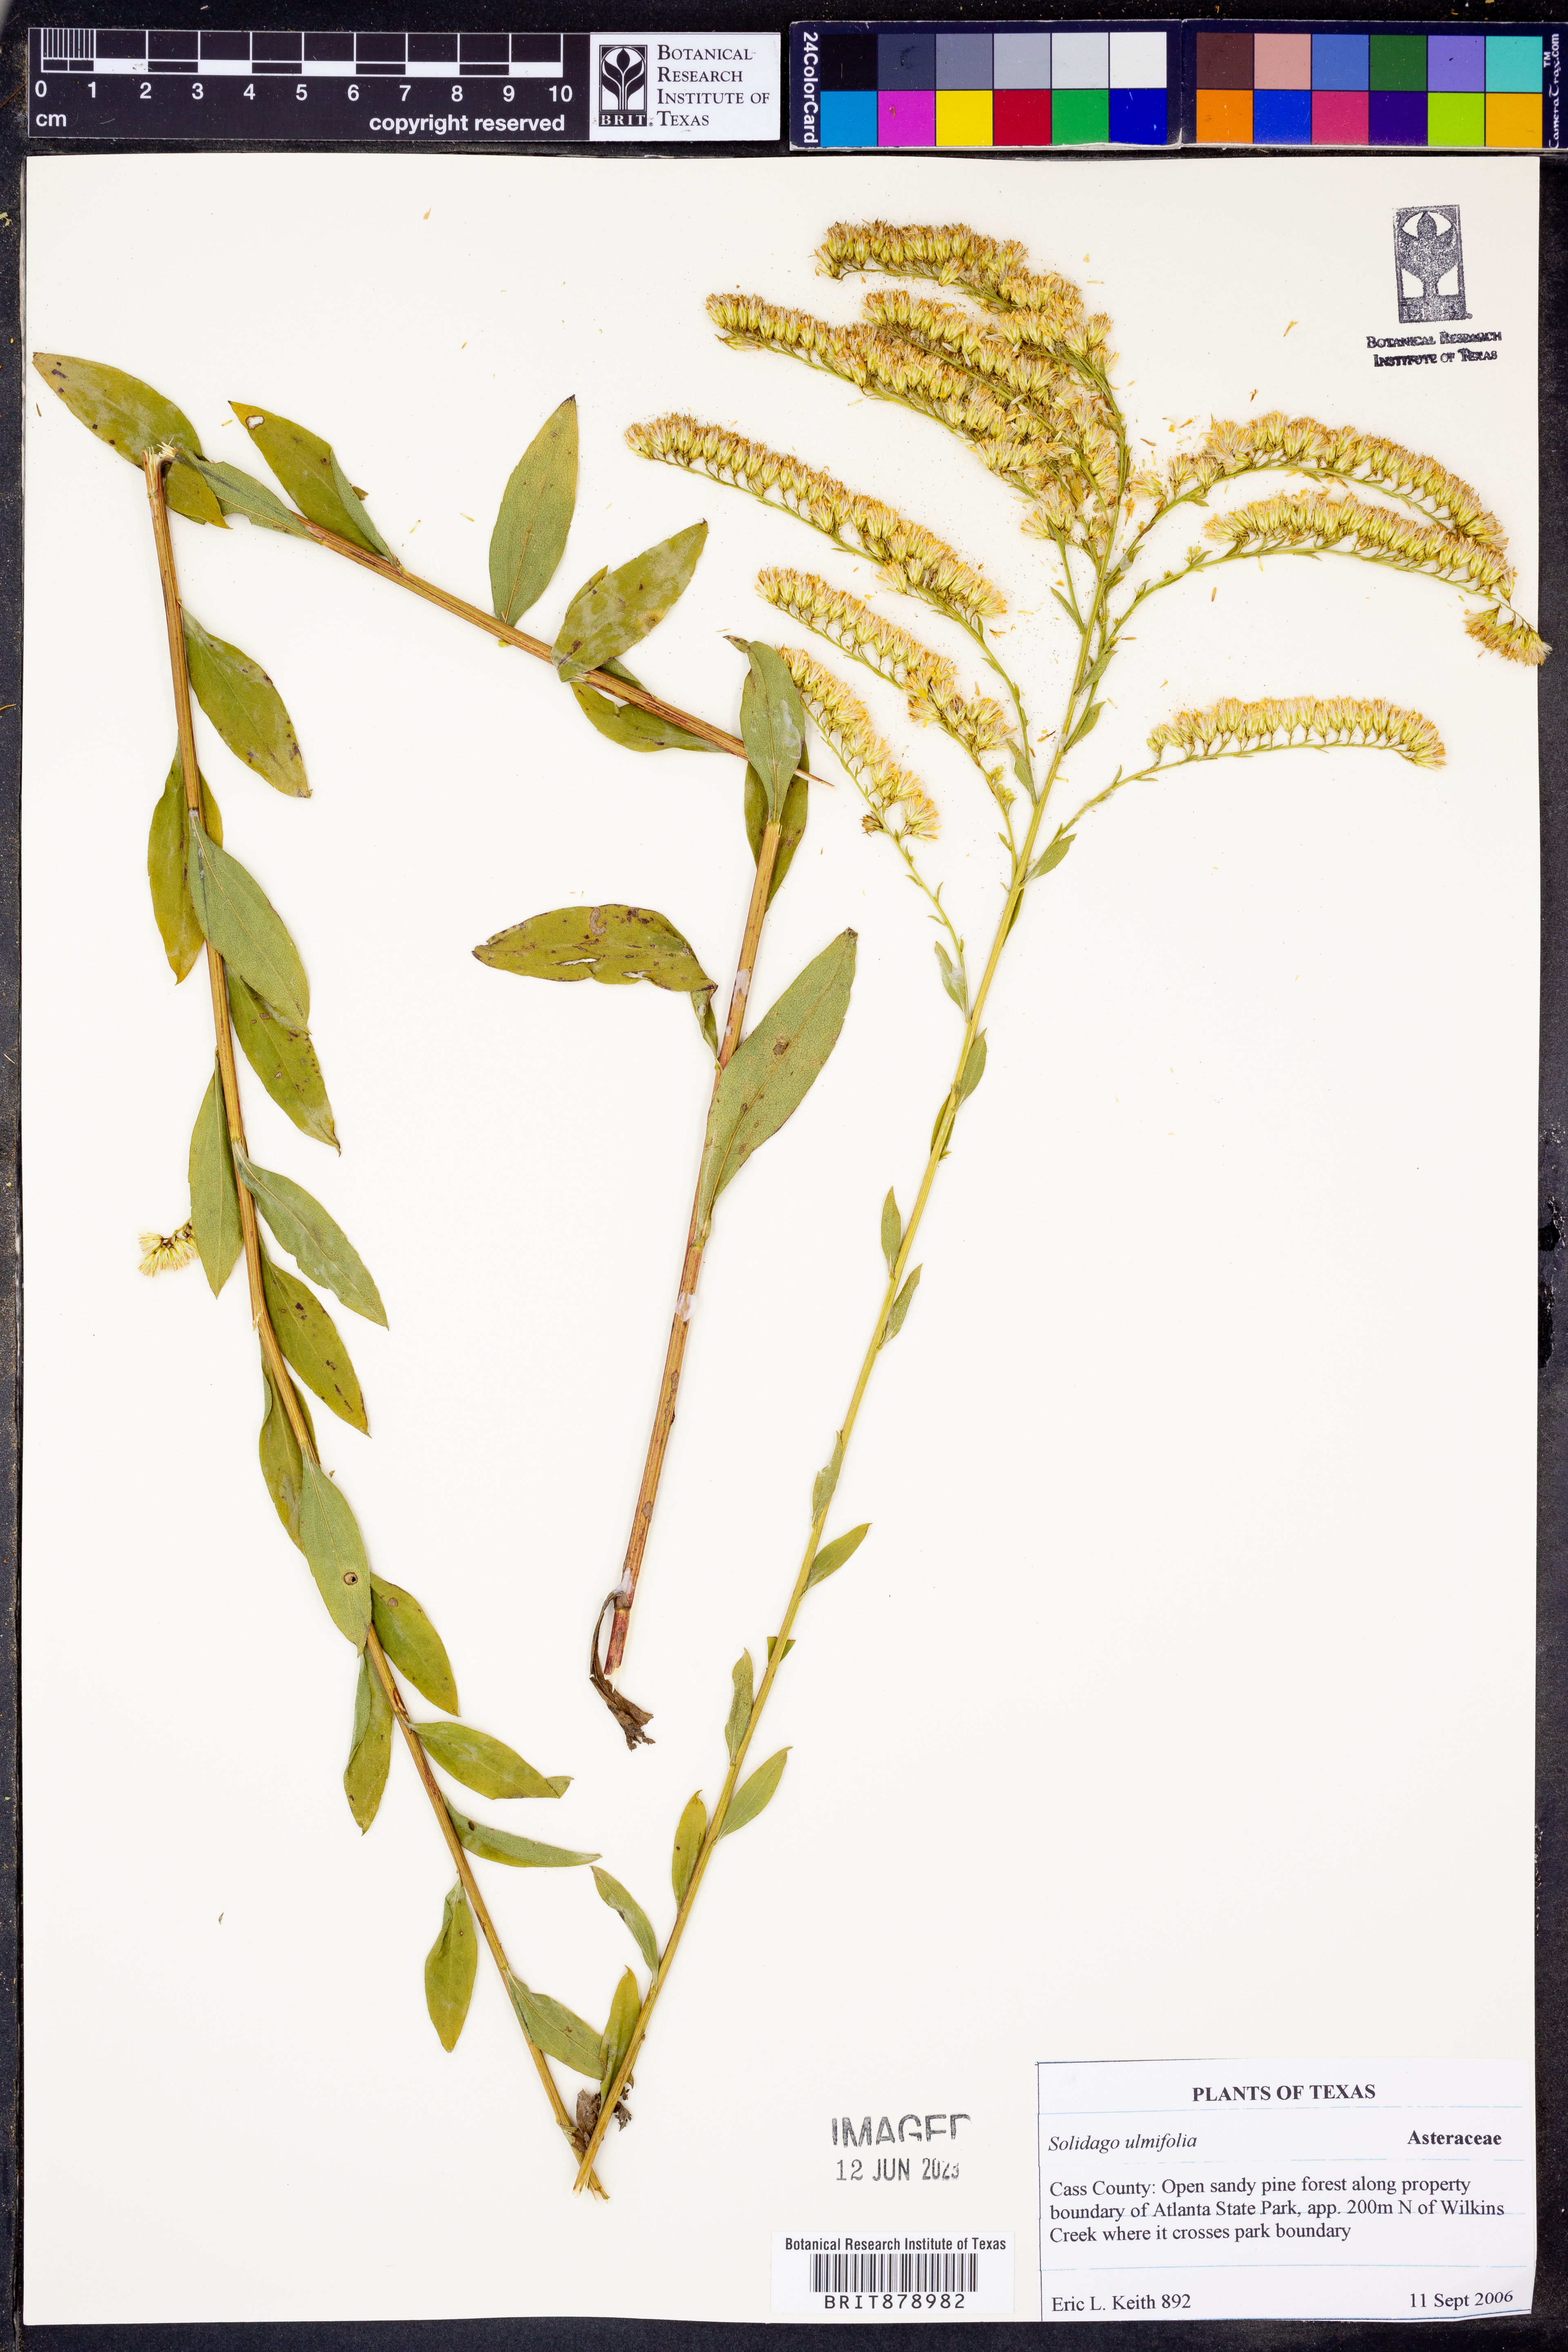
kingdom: Plantae
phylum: Tracheophyta
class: Magnoliopsida
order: Asterales
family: Asteraceae
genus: Solidago
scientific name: Solidago ulmifolia
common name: Elm-leaf goldenrod
